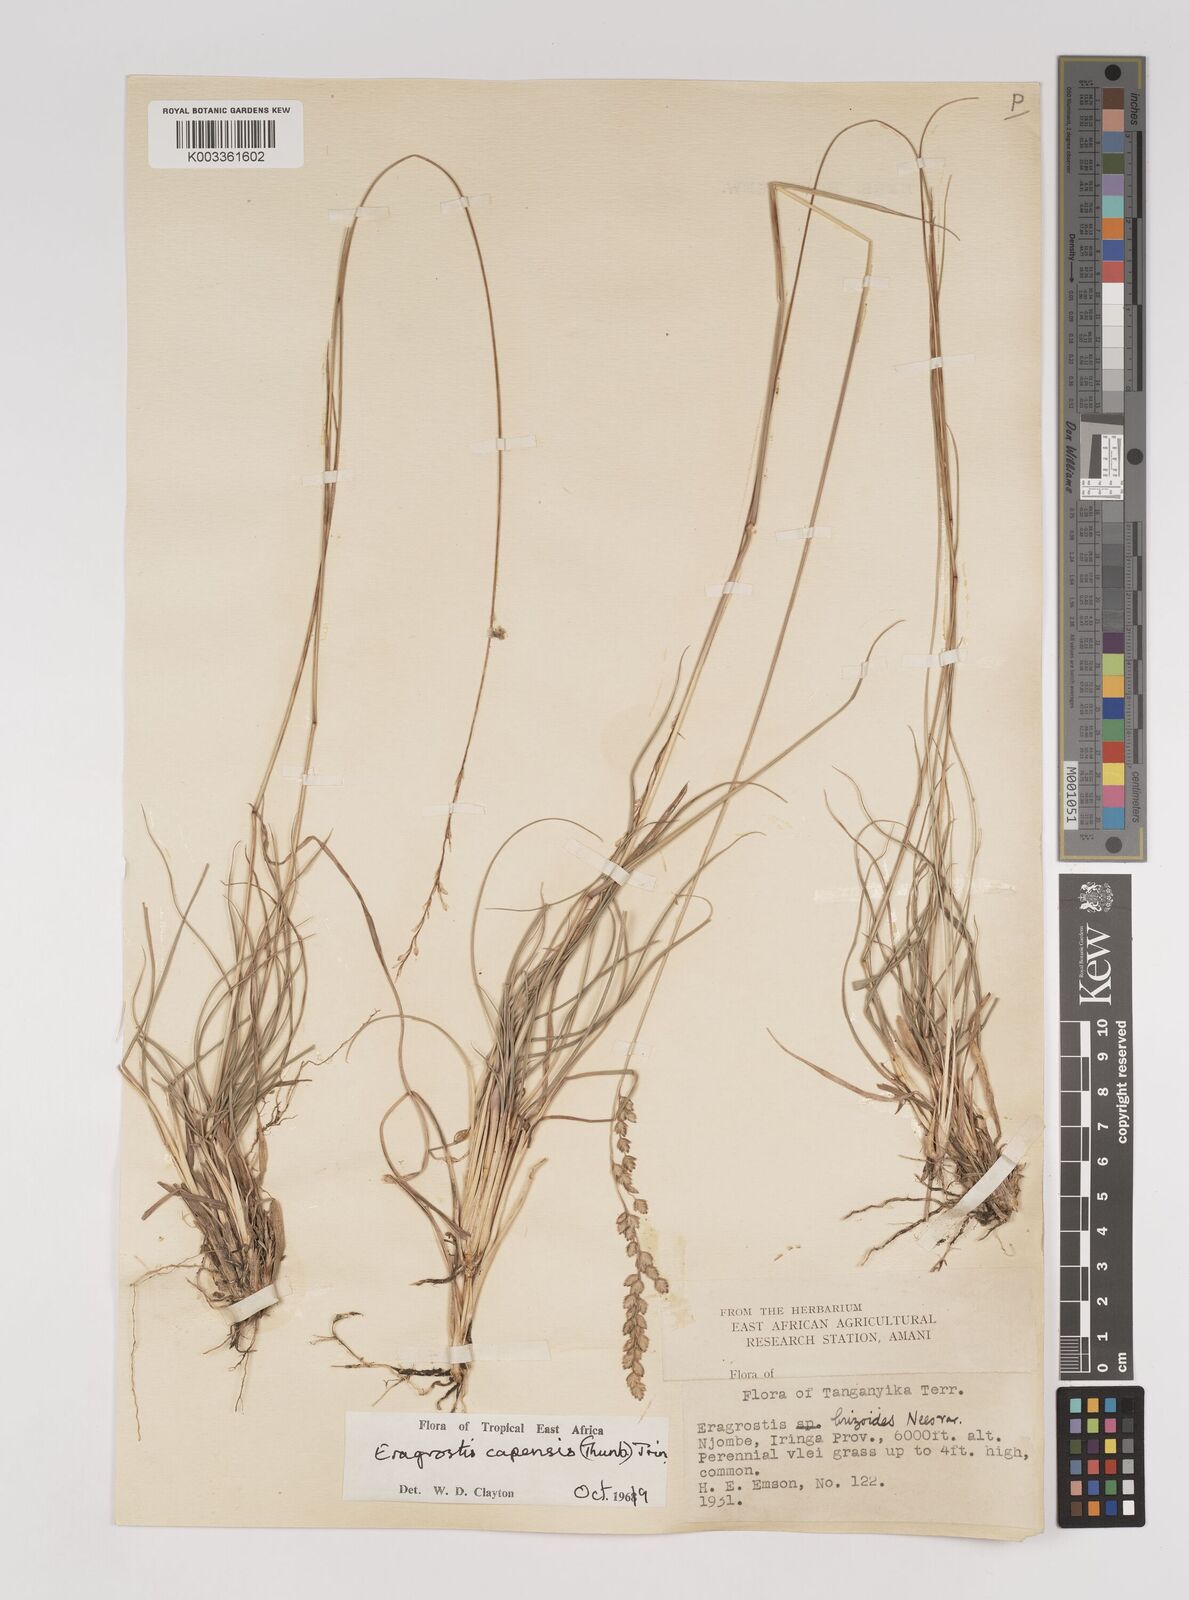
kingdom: Plantae
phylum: Tracheophyta
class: Liliopsida
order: Poales
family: Poaceae
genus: Eragrostis
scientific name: Eragrostis capensis
